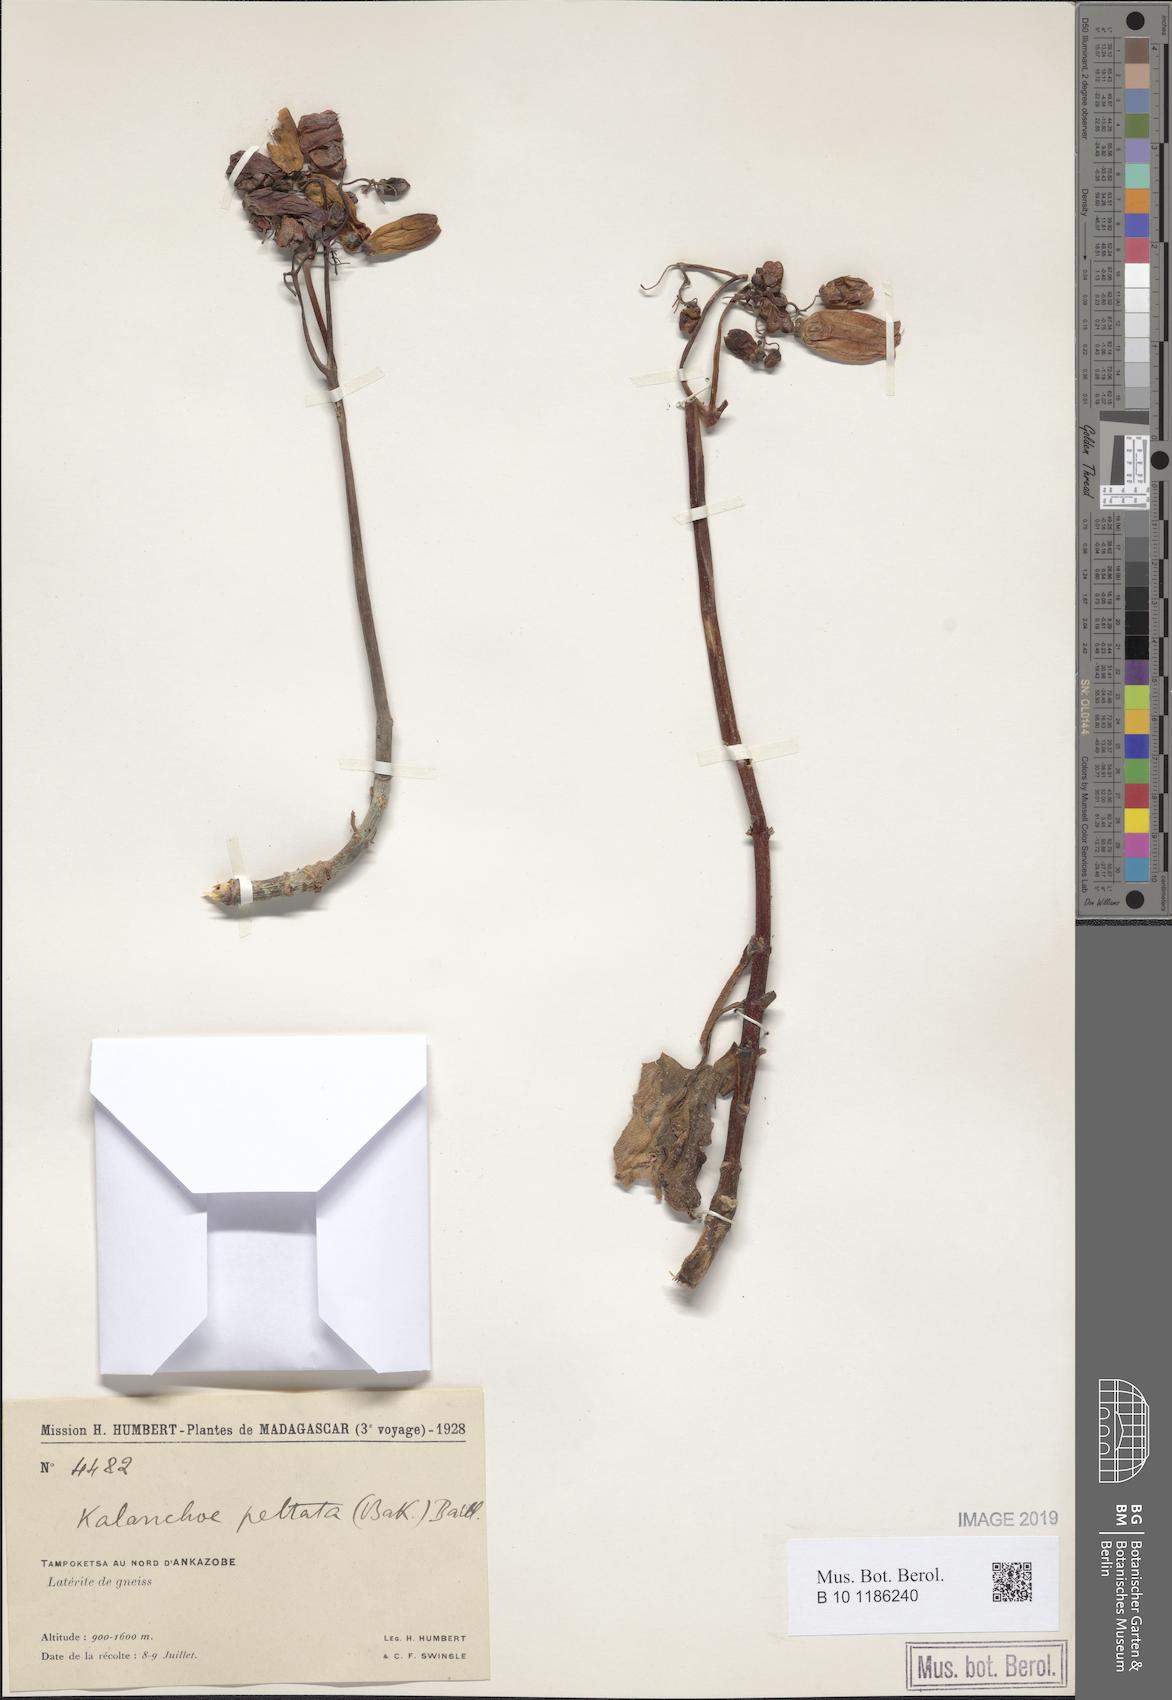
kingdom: Plantae
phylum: Tracheophyta
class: Magnoliopsida
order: Saxifragales
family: Crassulaceae
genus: Kalanchoe
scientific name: Kalanchoe peltata
